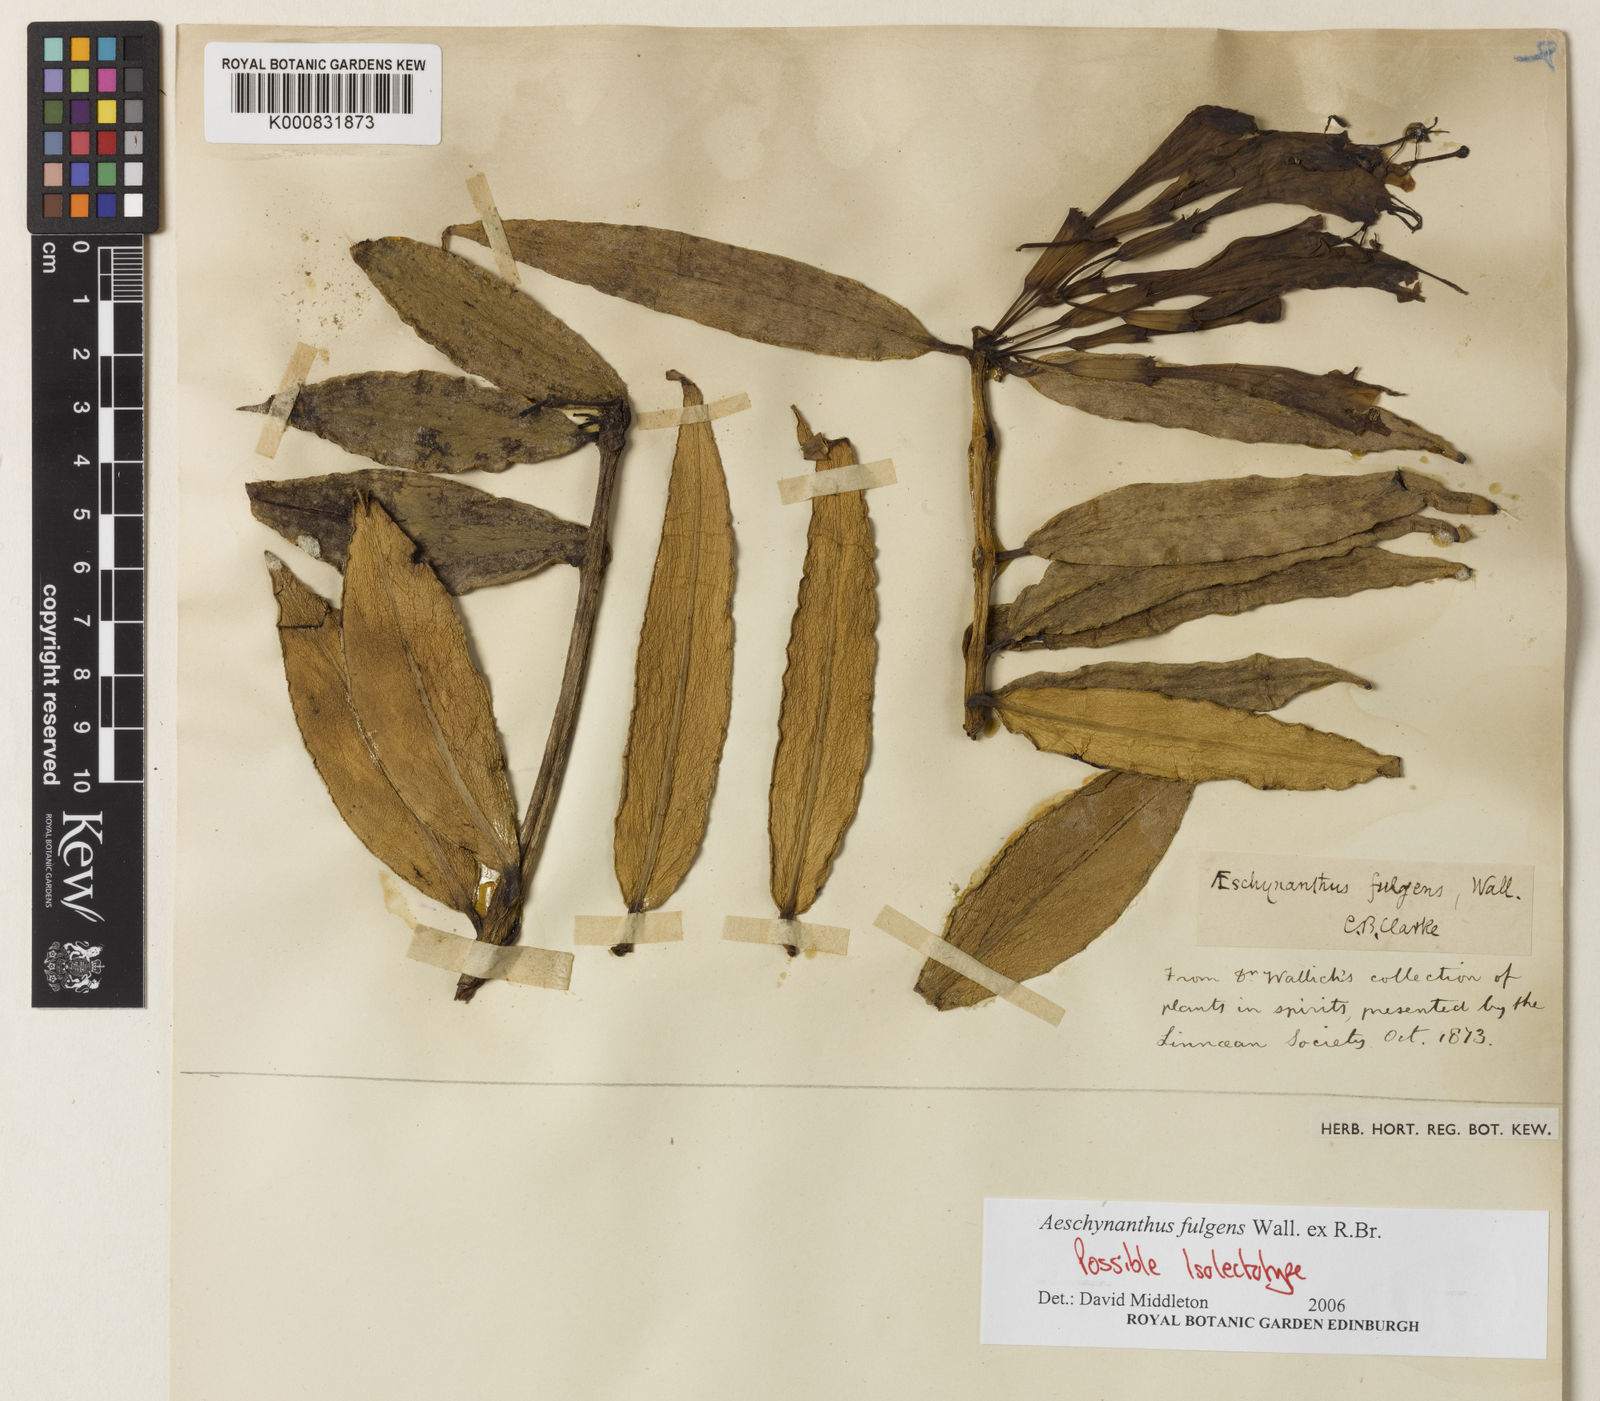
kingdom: Plantae
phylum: Tracheophyta
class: Magnoliopsida
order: Lamiales
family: Gesneriaceae
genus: Aeschynanthus
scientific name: Aeschynanthus fulgens
